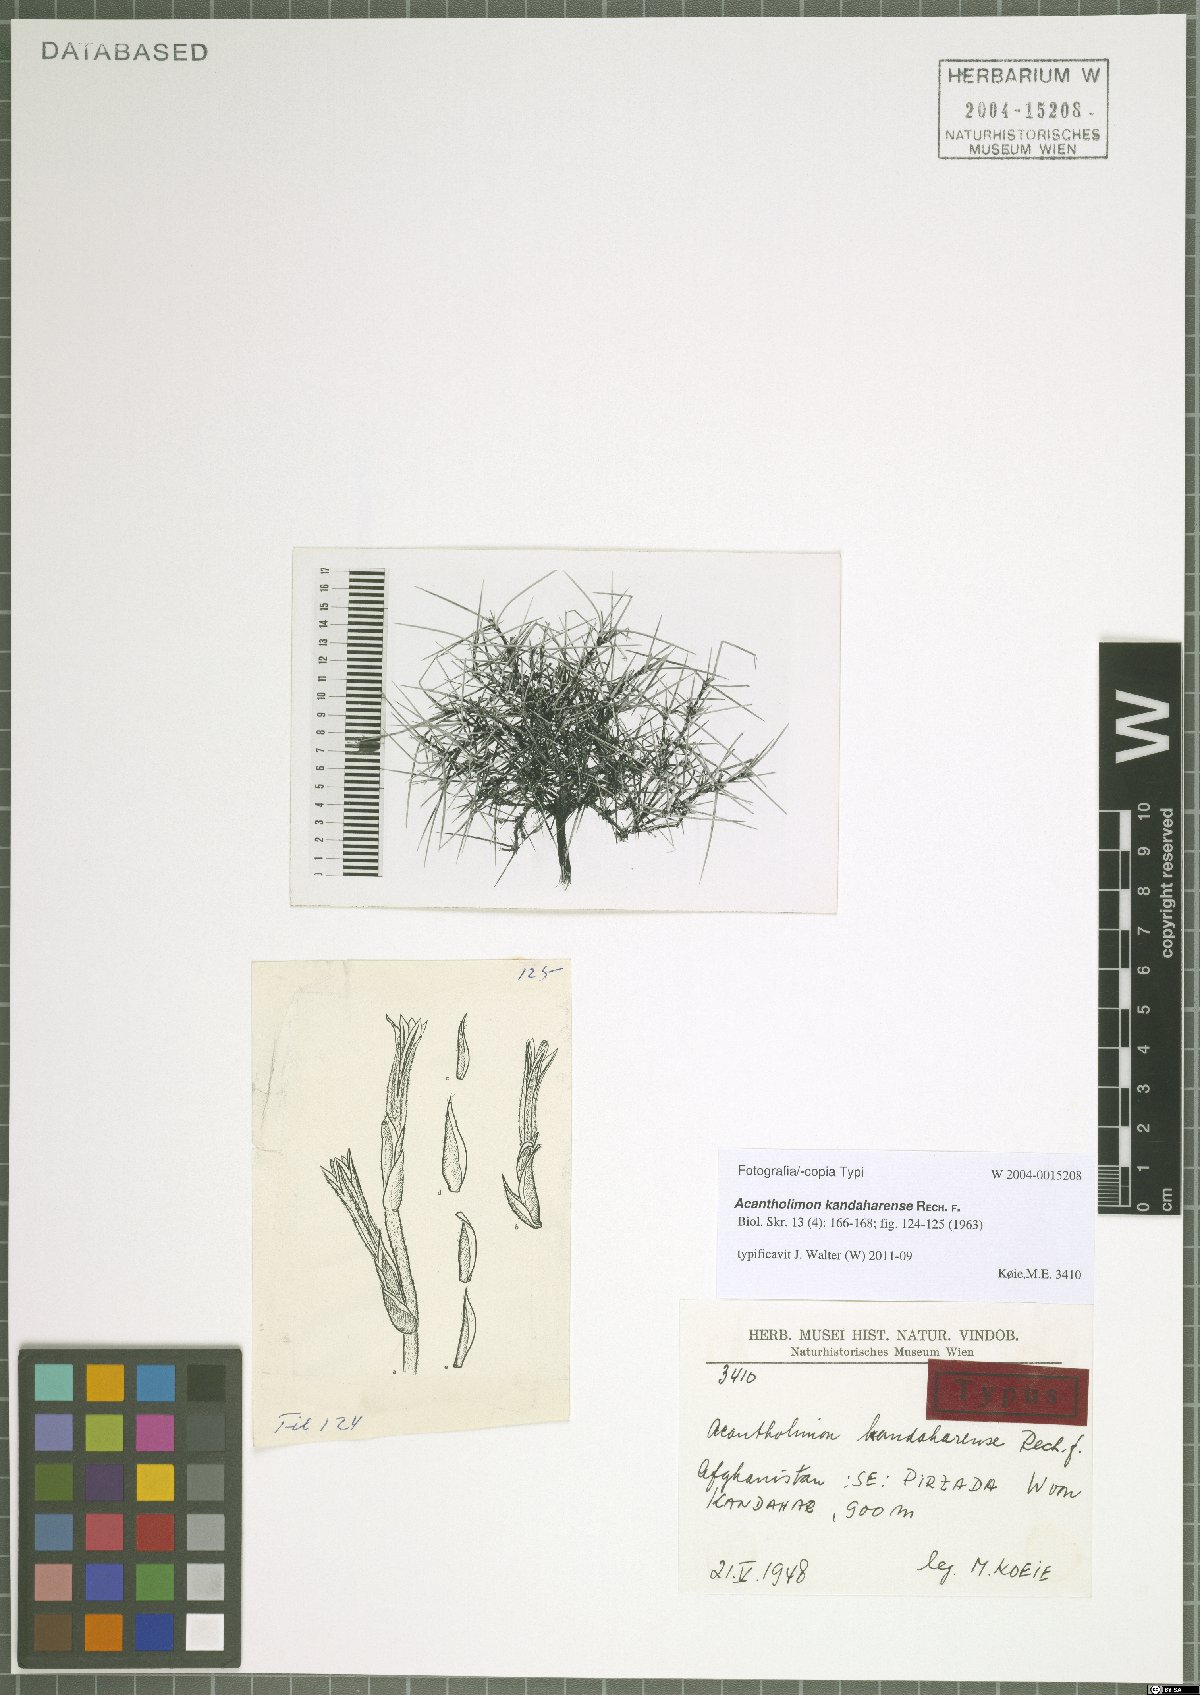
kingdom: Plantae
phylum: Tracheophyta
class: Magnoliopsida
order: Caryophyllales
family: Plumbaginaceae
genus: Acantholimon
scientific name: Acantholimon kandaharense
